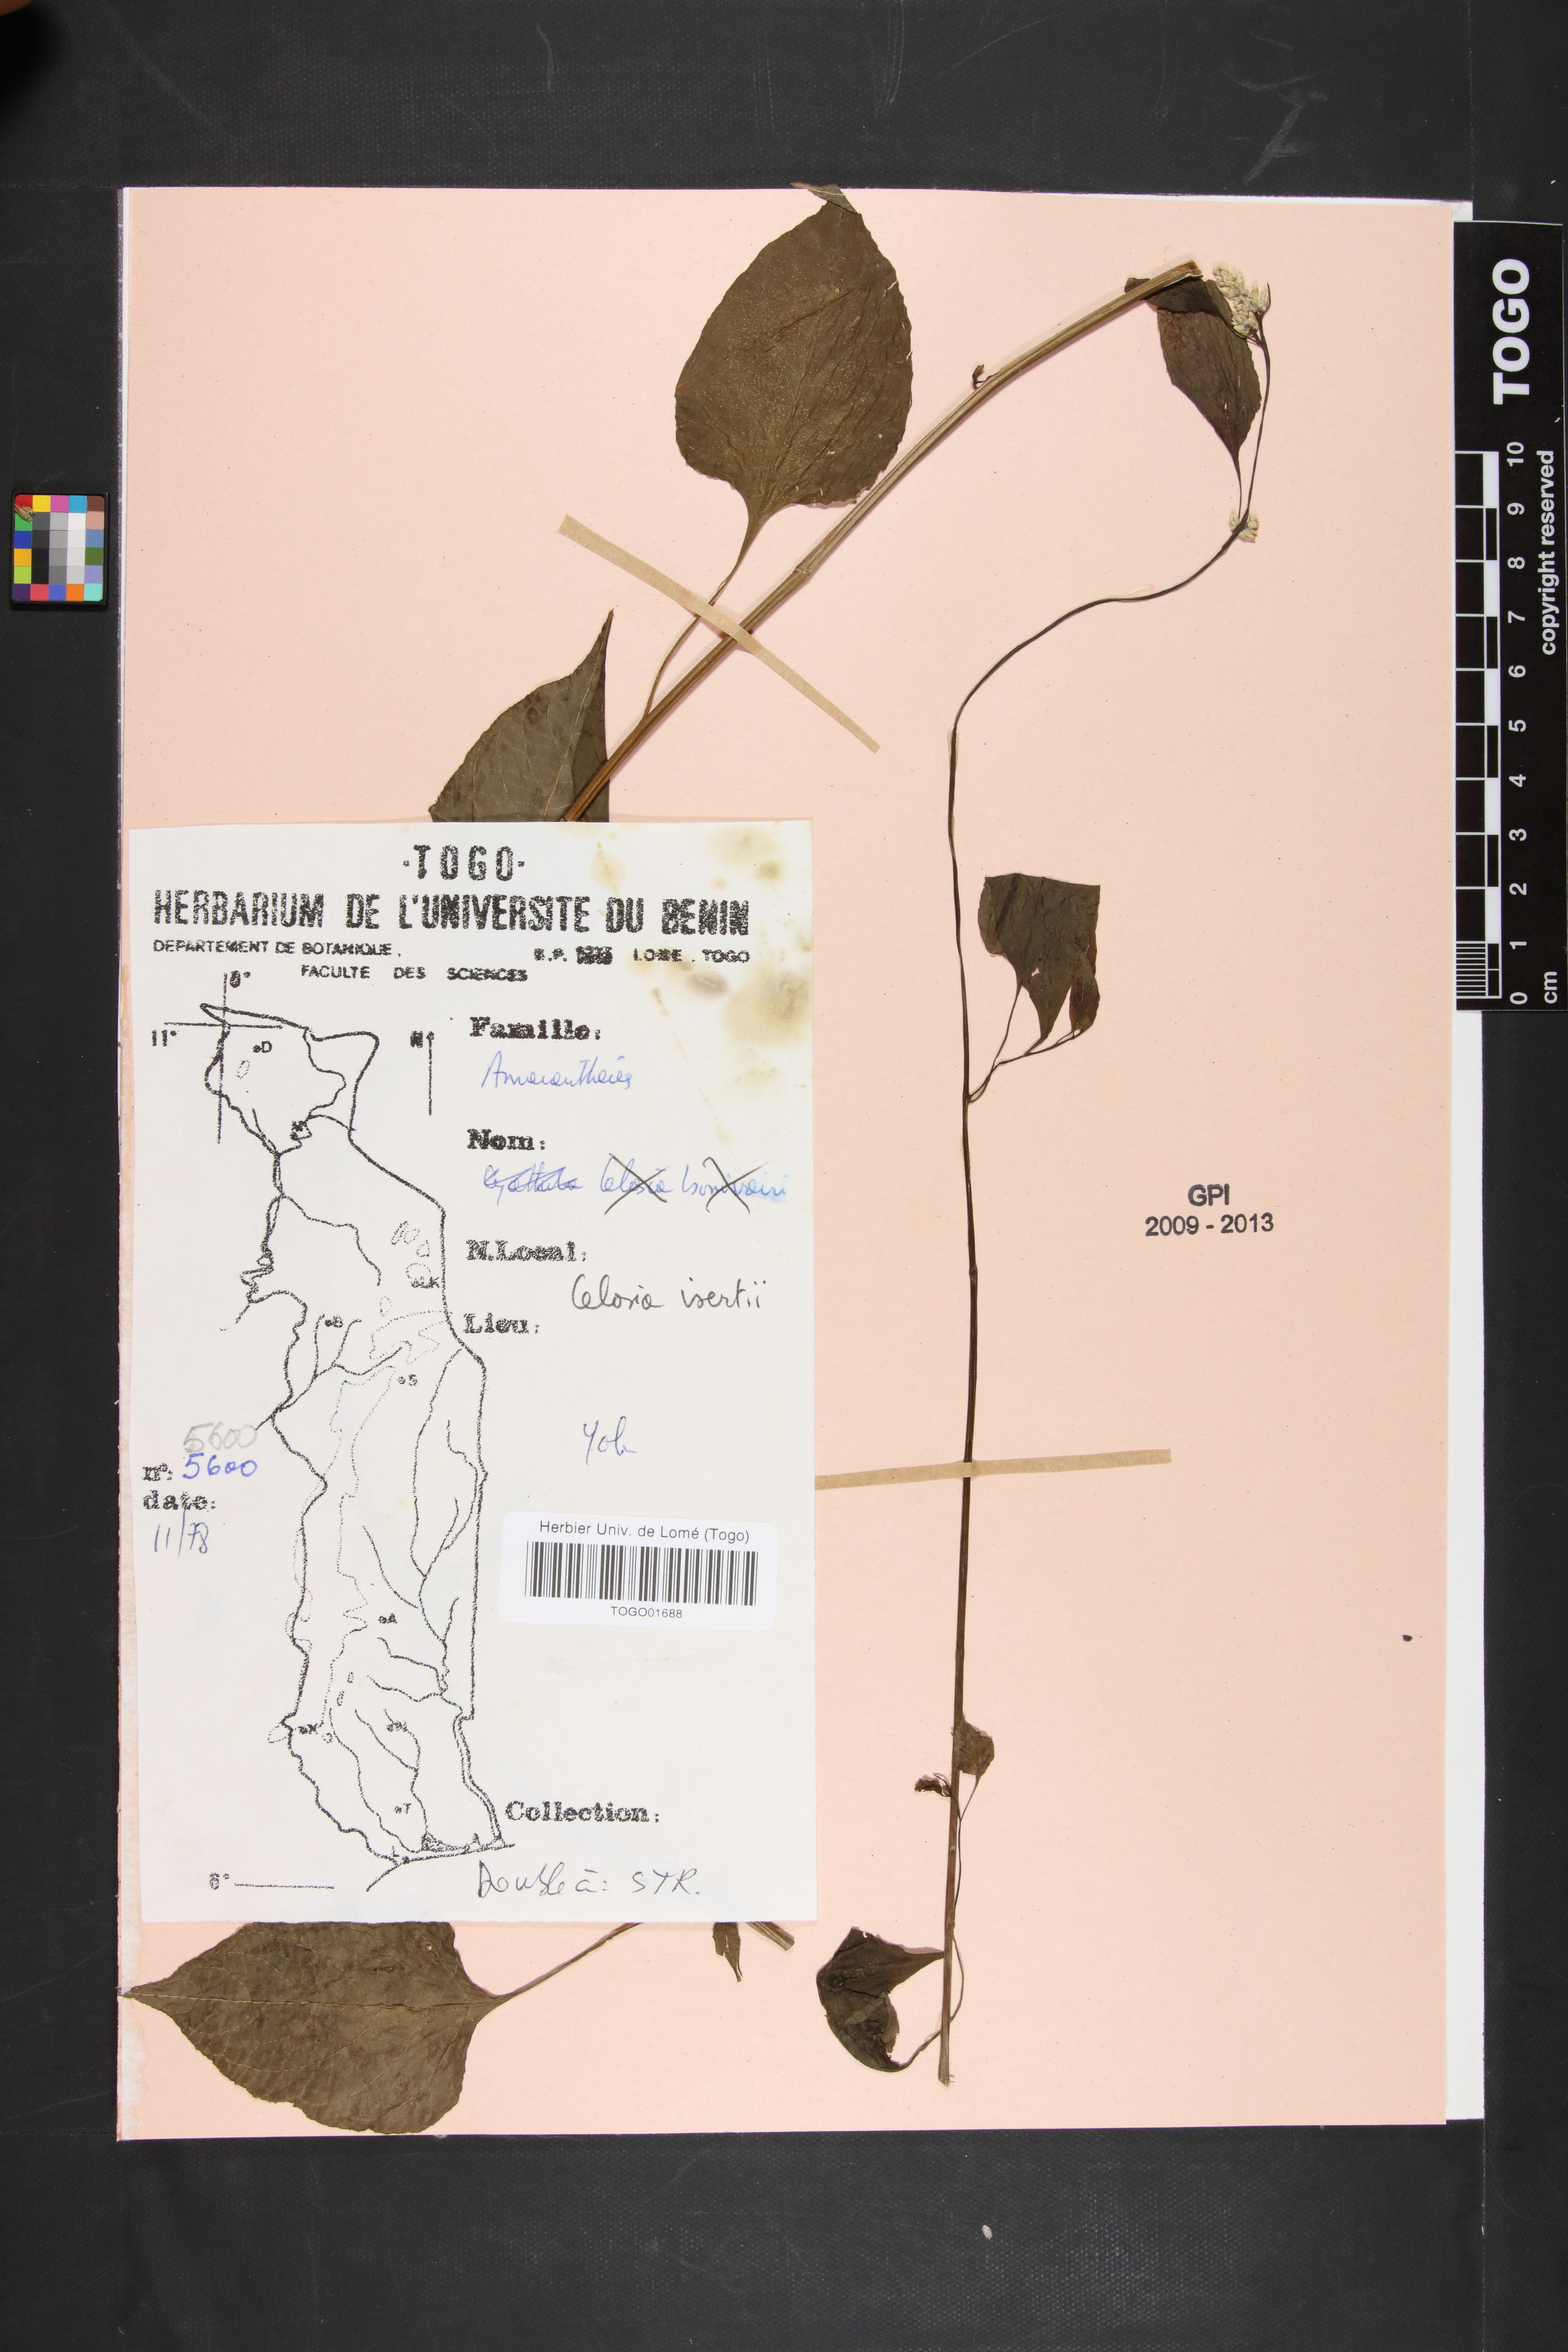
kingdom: Plantae
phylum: Tracheophyta
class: Magnoliopsida
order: Caryophyllales
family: Amaranthaceae
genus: Celosia
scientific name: Celosia isertii
